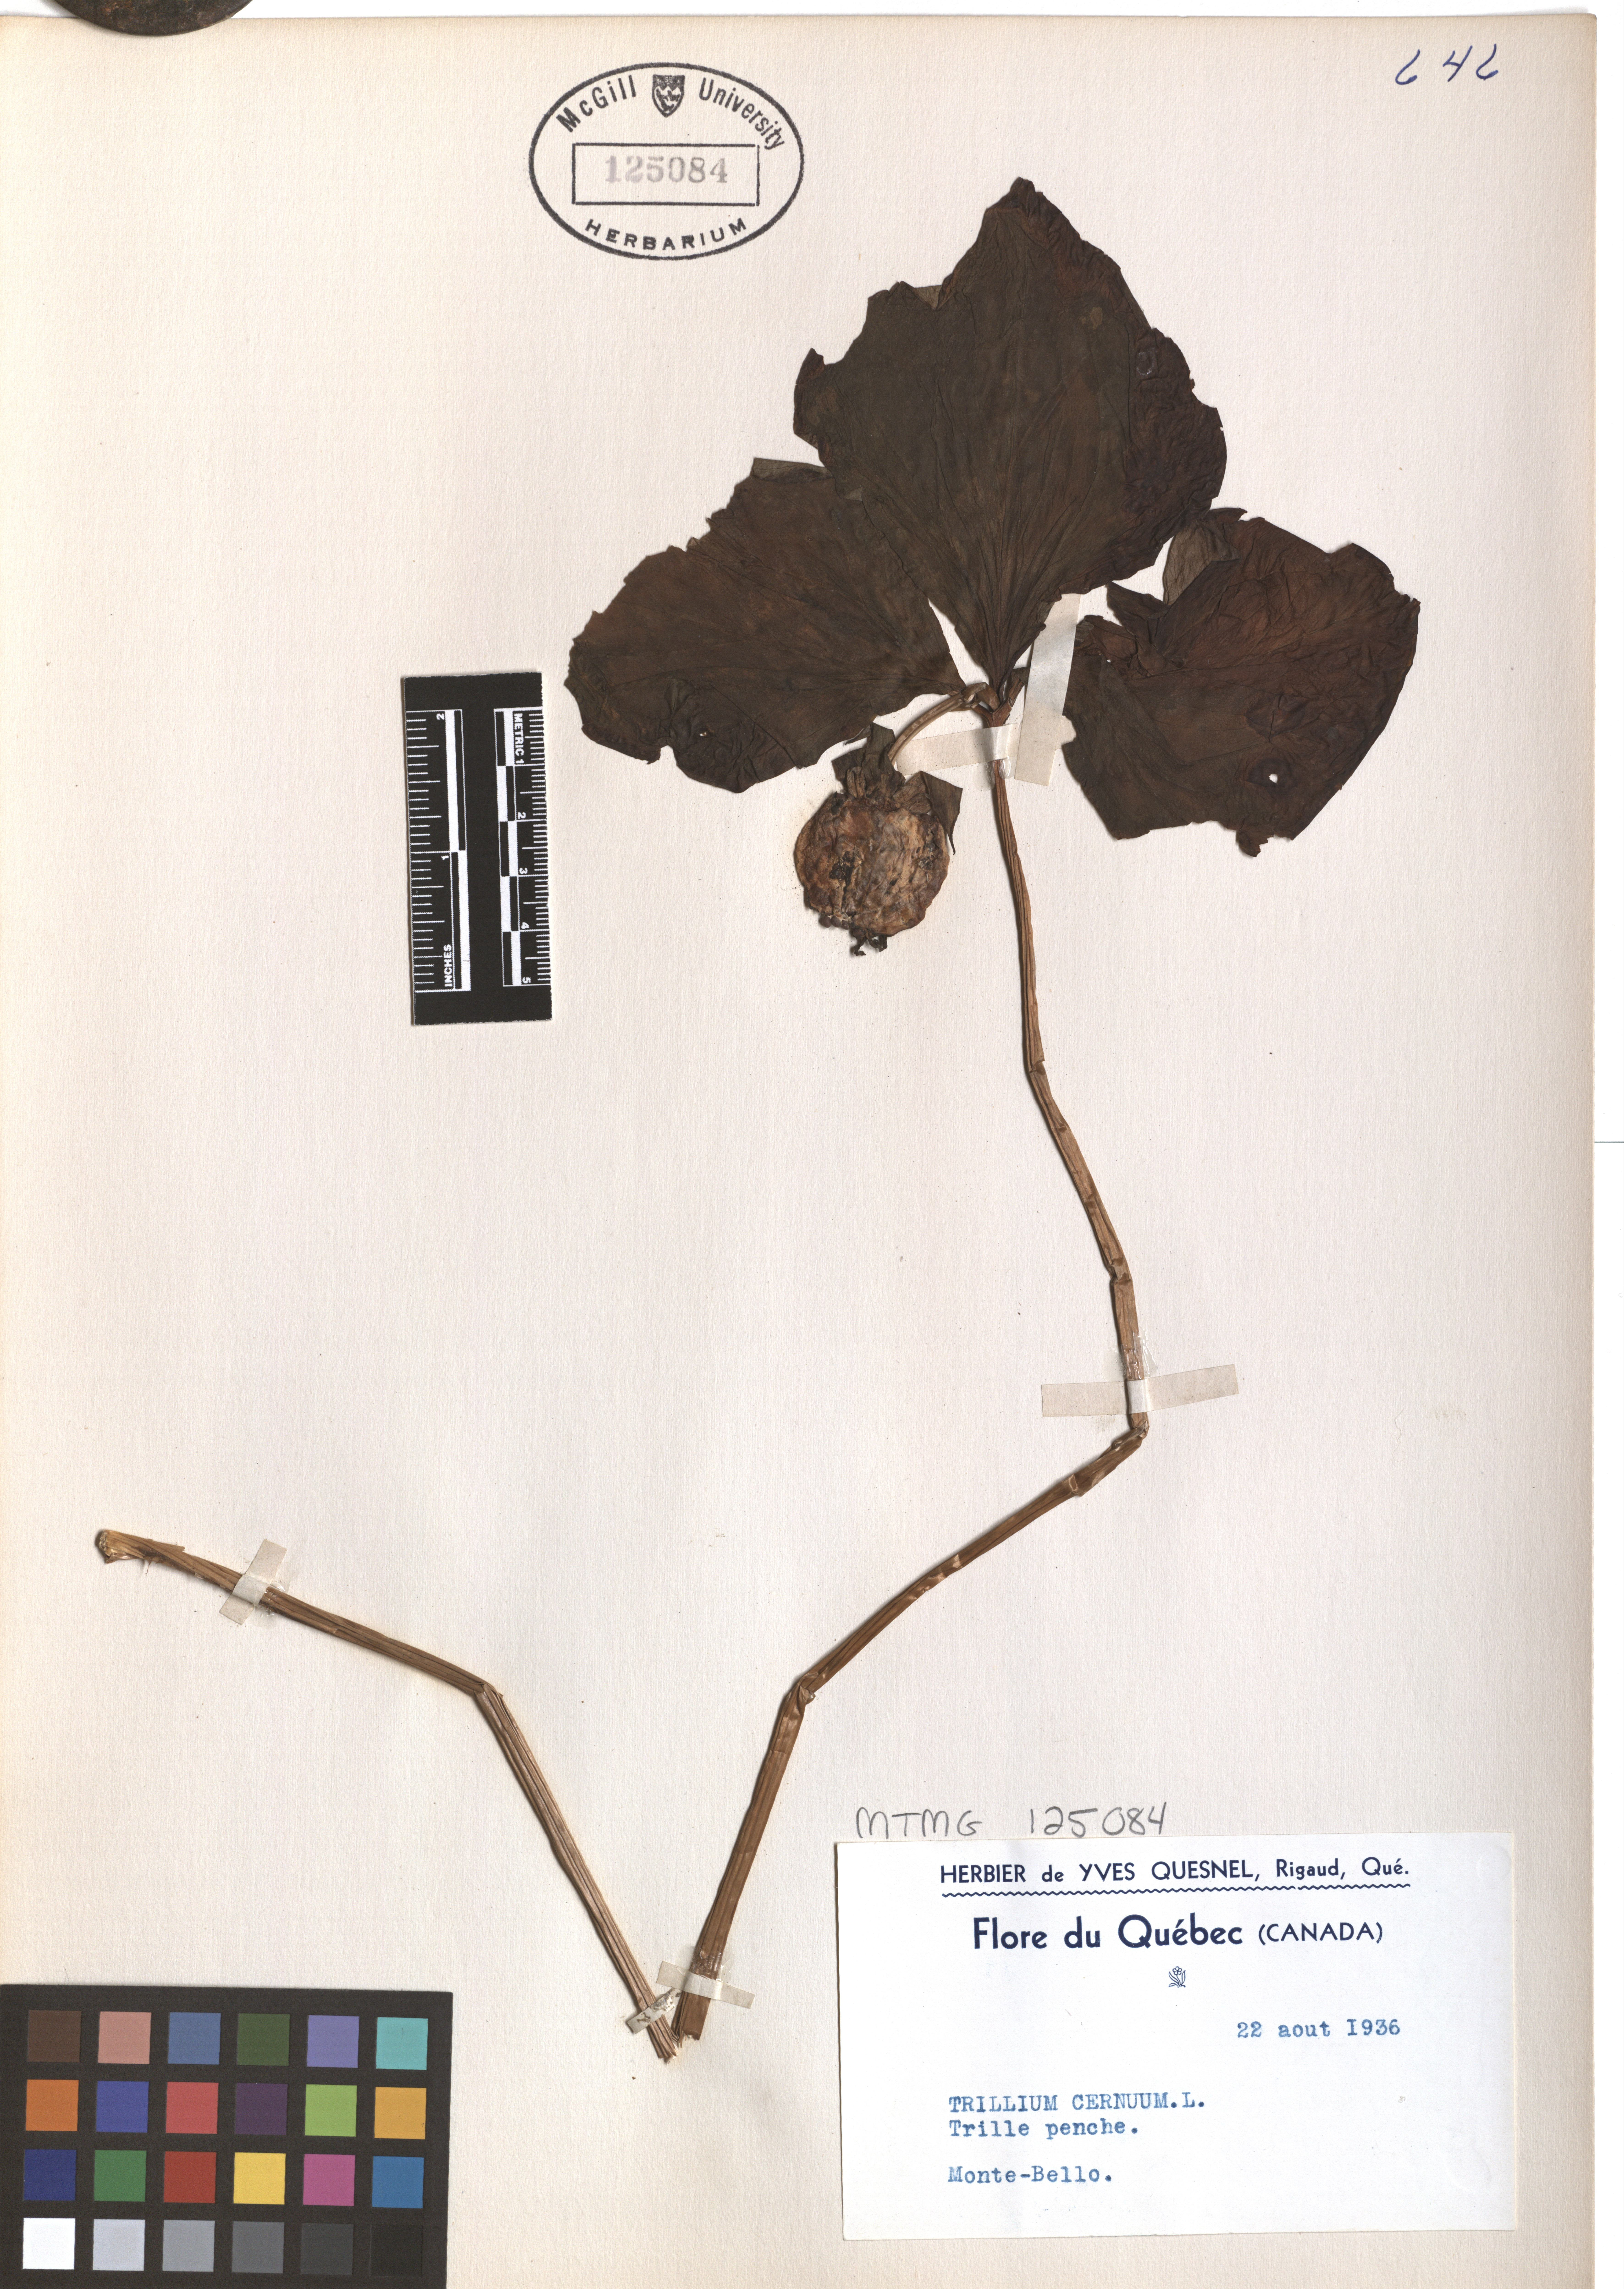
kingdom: Plantae
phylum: Tracheophyta
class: Liliopsida
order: Liliales
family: Melanthiaceae
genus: Trillium
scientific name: Trillium cernuum
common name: Nodding trillium
